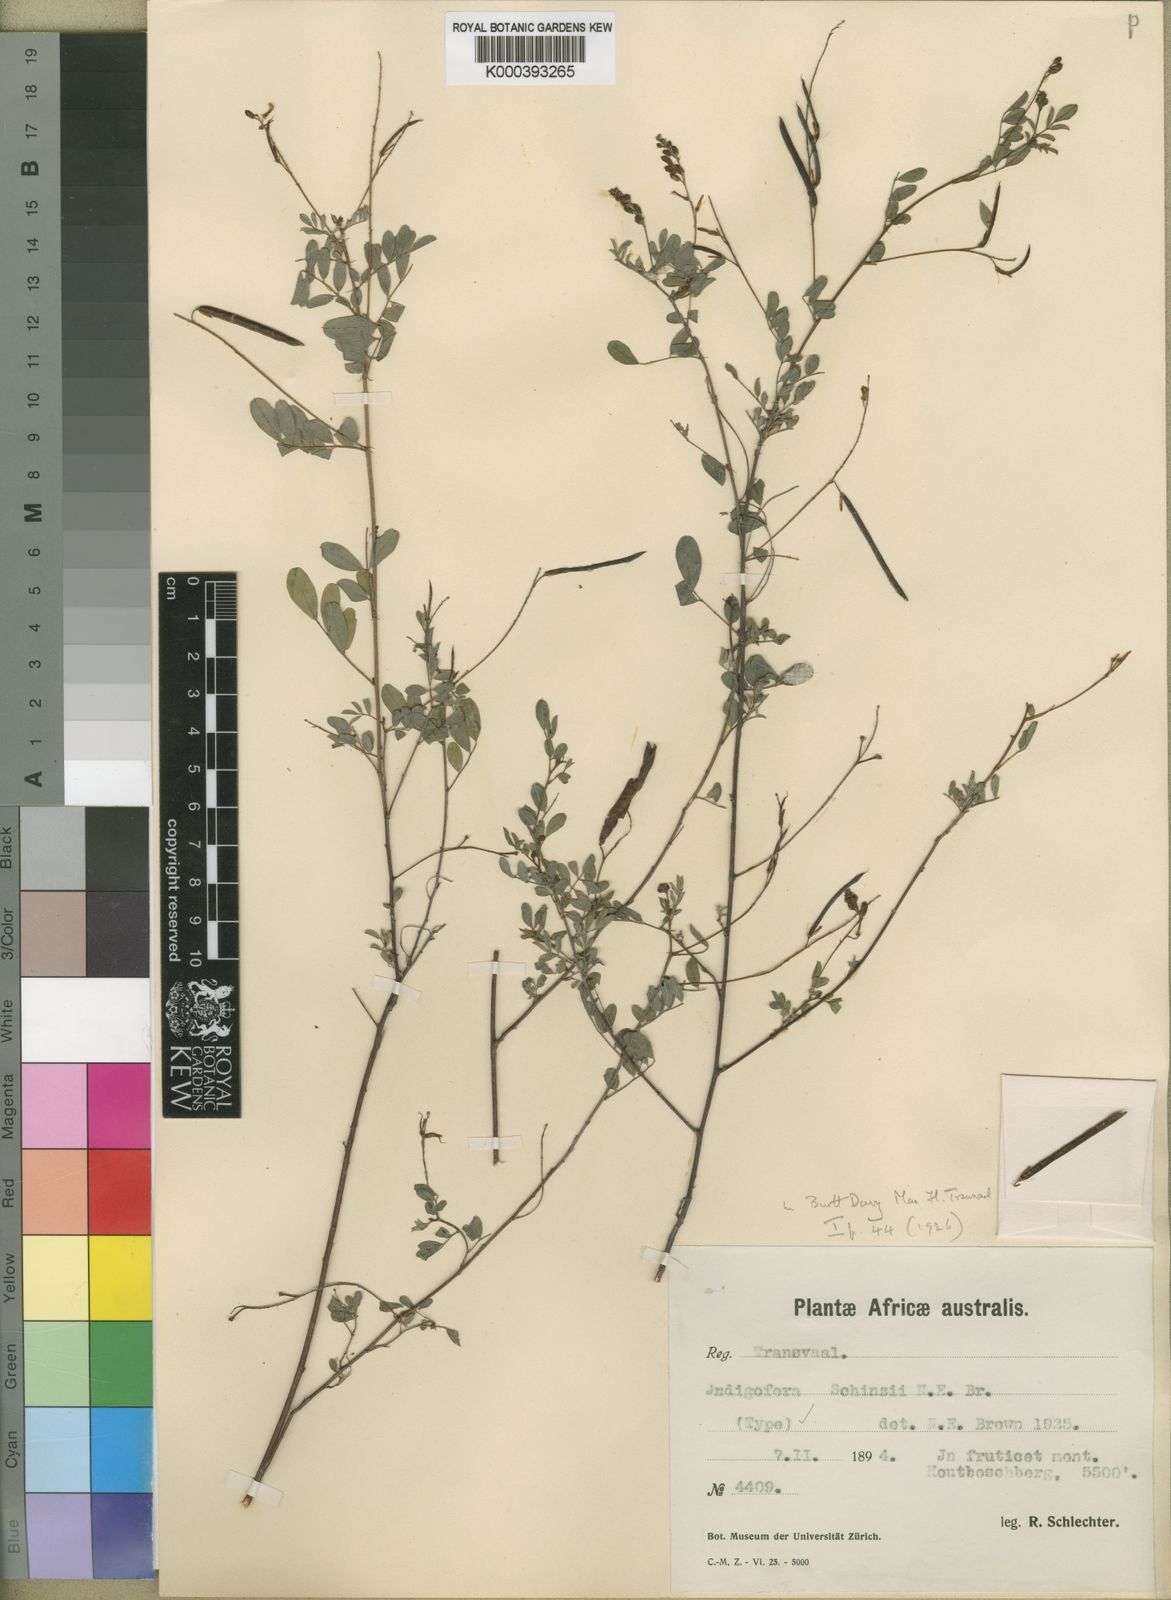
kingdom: Plantae
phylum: Tracheophyta
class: Magnoliopsida
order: Fabales
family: Fabaceae
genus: Indigofera
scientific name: Indigofera schinzii
